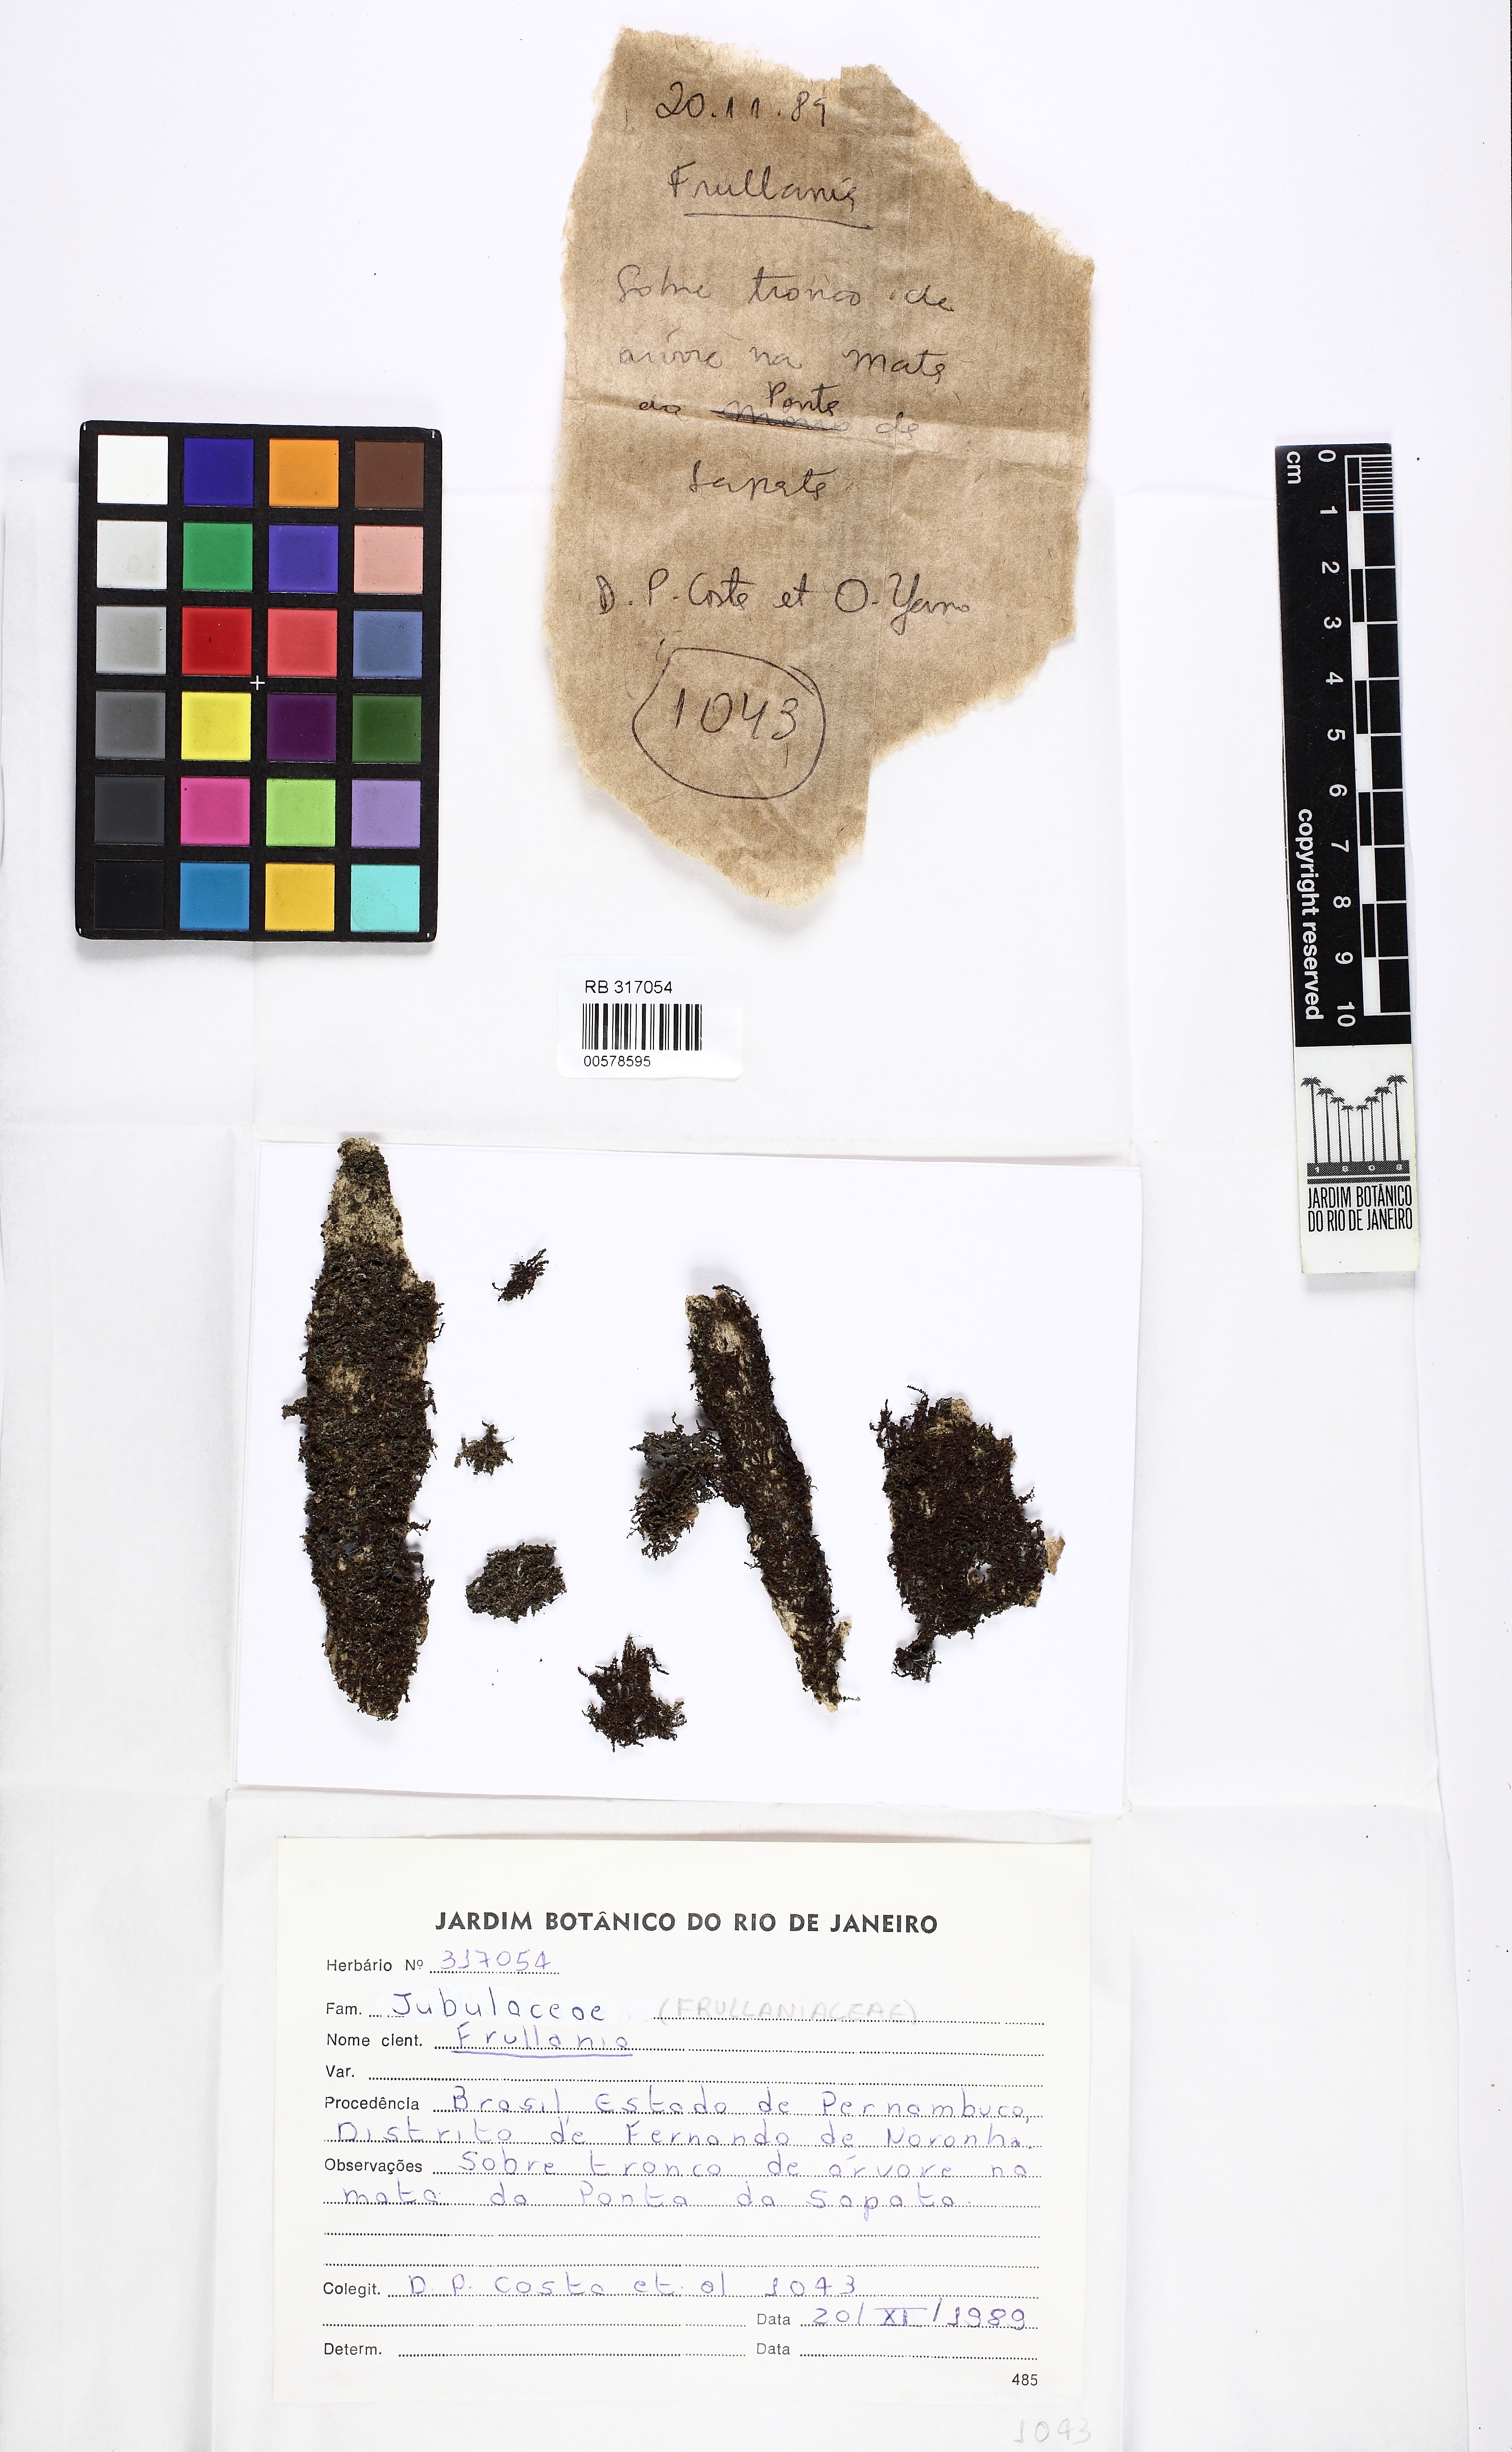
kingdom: Plantae
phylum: Marchantiophyta
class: Jungermanniopsida
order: Porellales
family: Frullaniaceae
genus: Frullania
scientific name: Frullania ericoides
